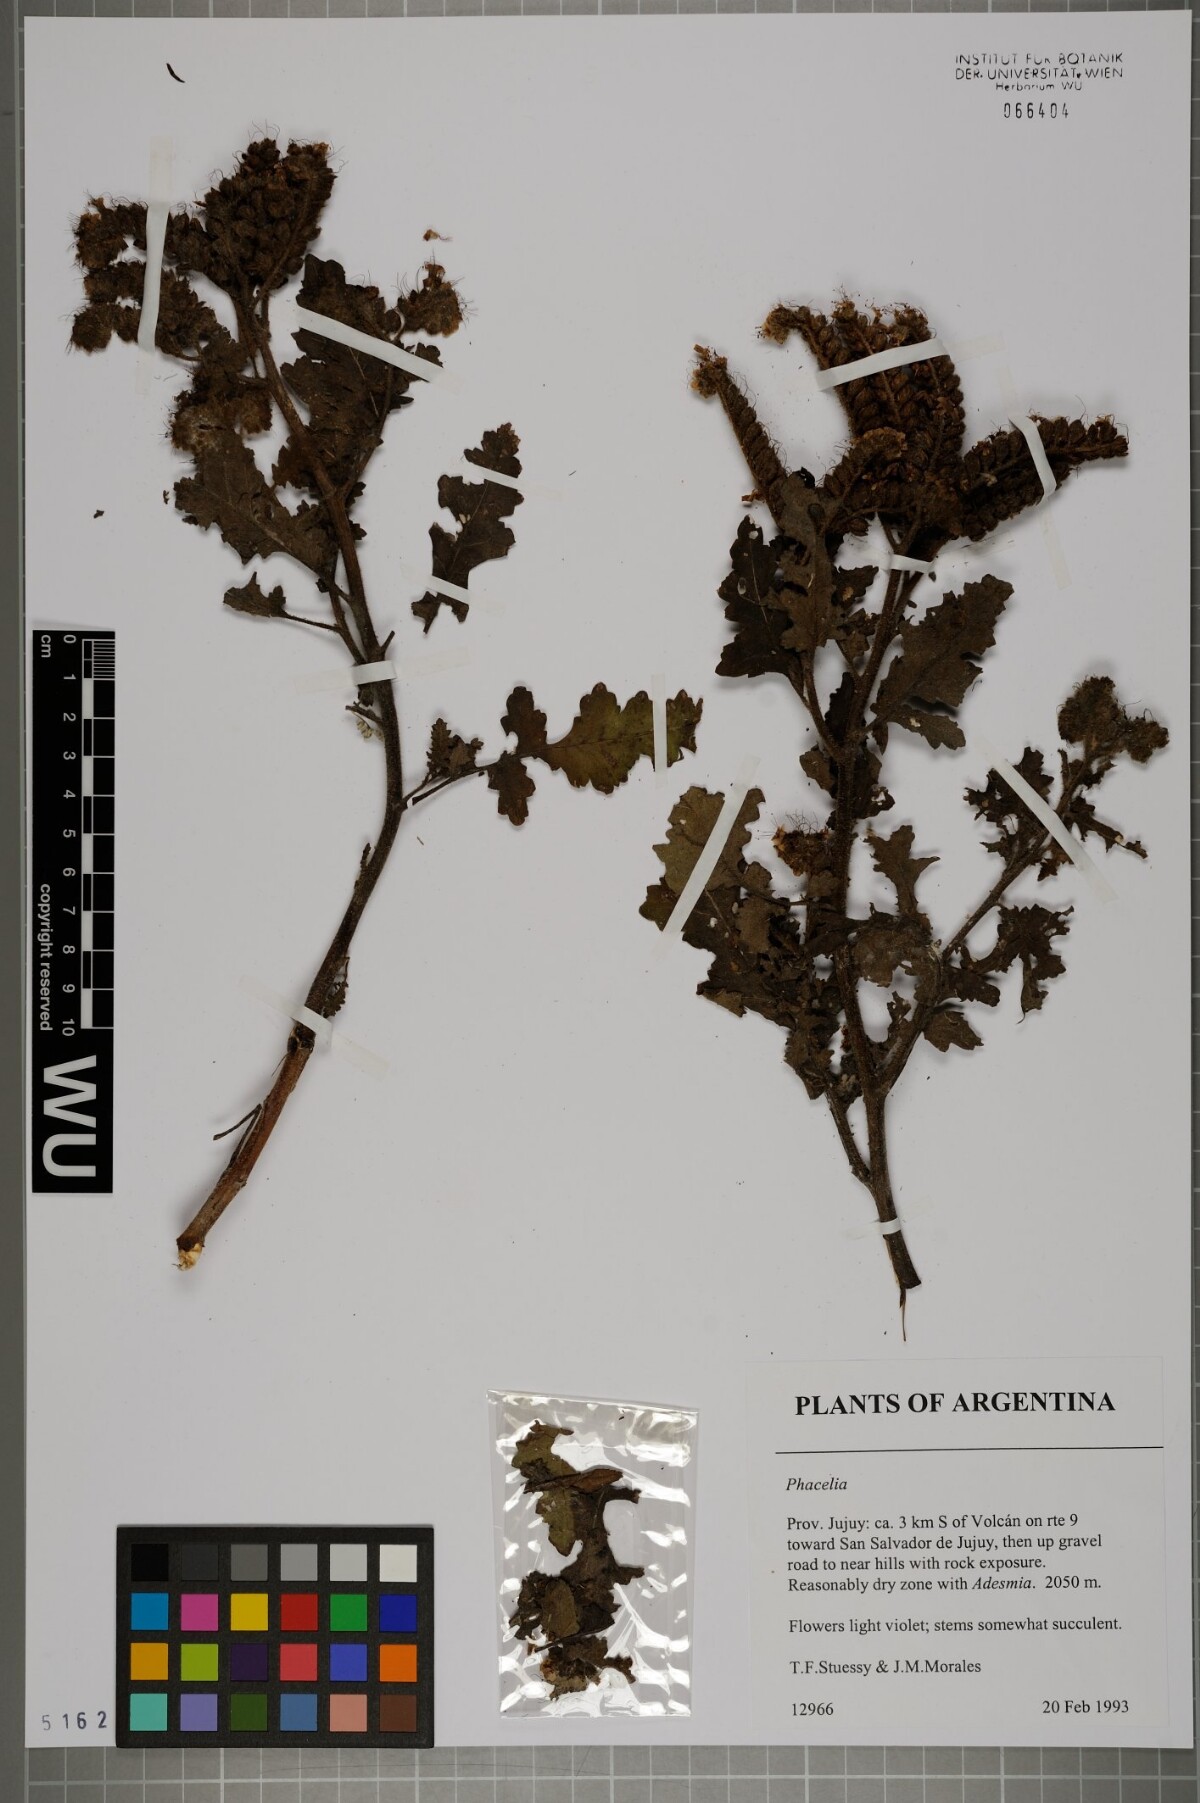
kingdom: Plantae
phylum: Tracheophyta
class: Magnoliopsida
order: Boraginales
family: Hydrophyllaceae
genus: Phacelia
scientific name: Phacelia
